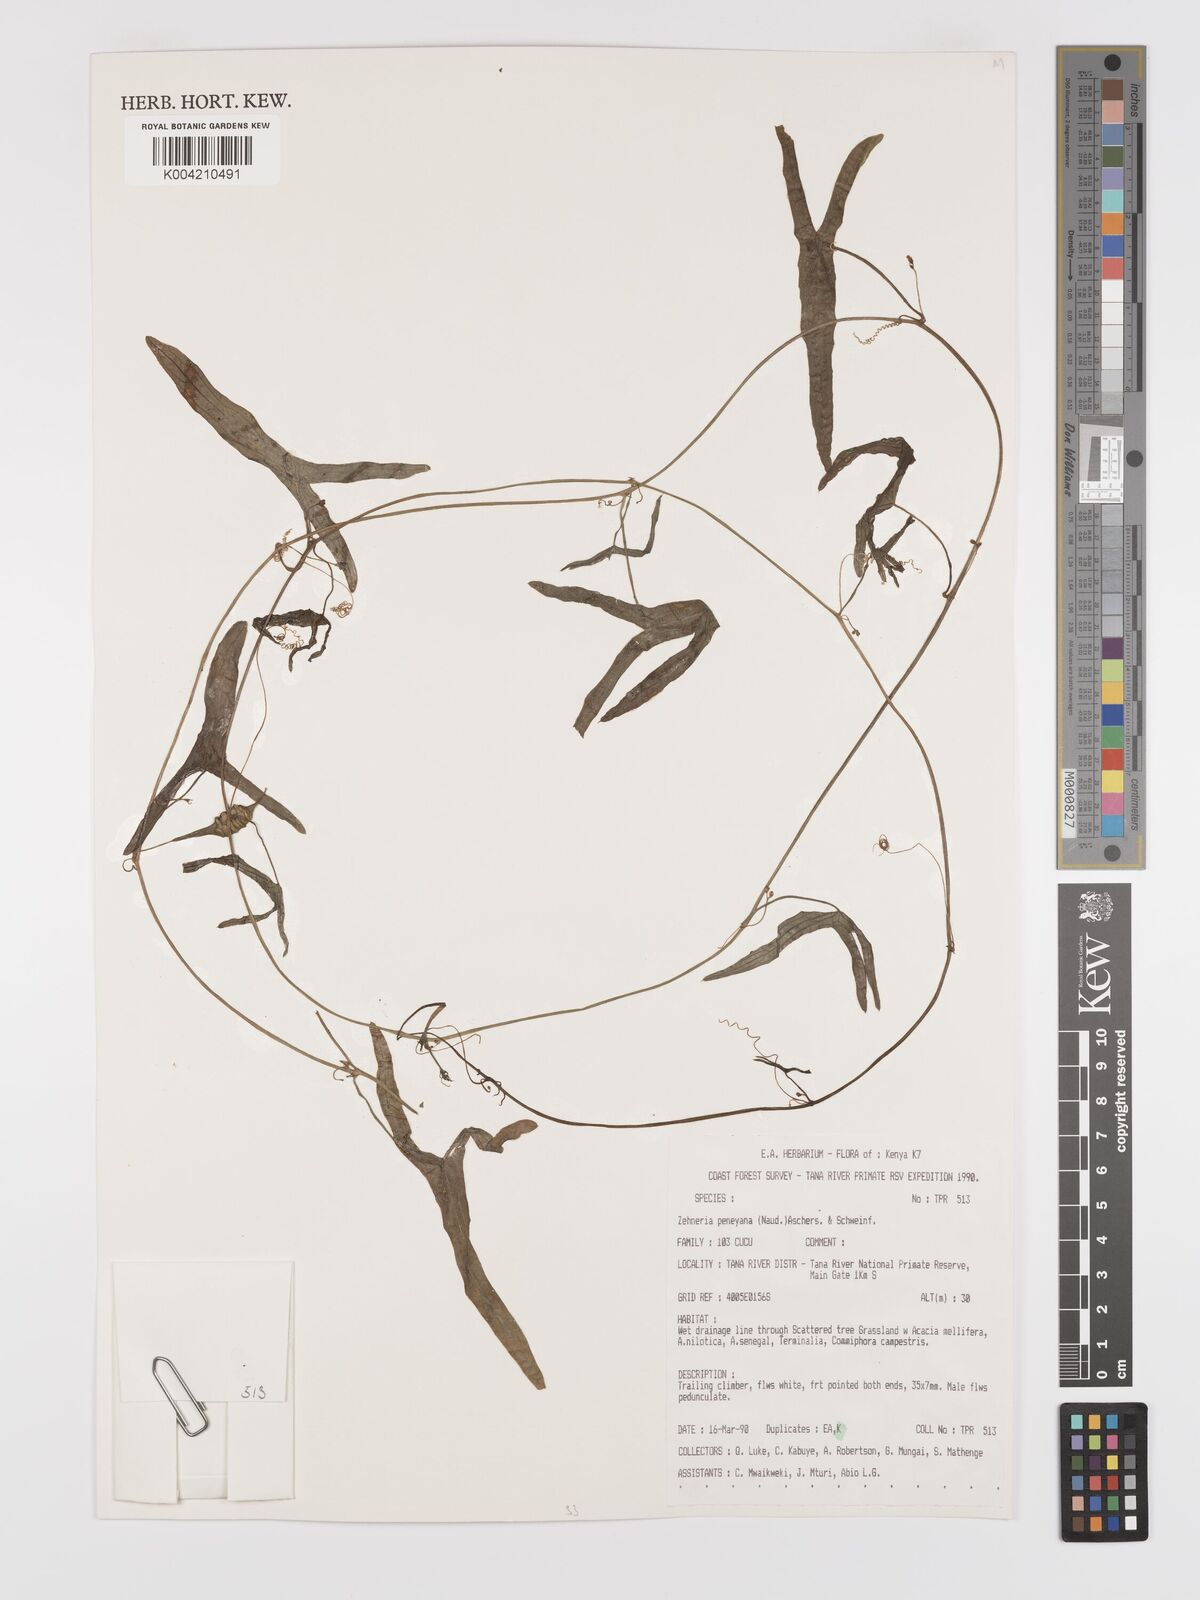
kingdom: Plantae
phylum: Tracheophyta
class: Magnoliopsida
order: Cucurbitales
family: Cucurbitaceae
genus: Zehneria
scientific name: Zehneria peneyana
